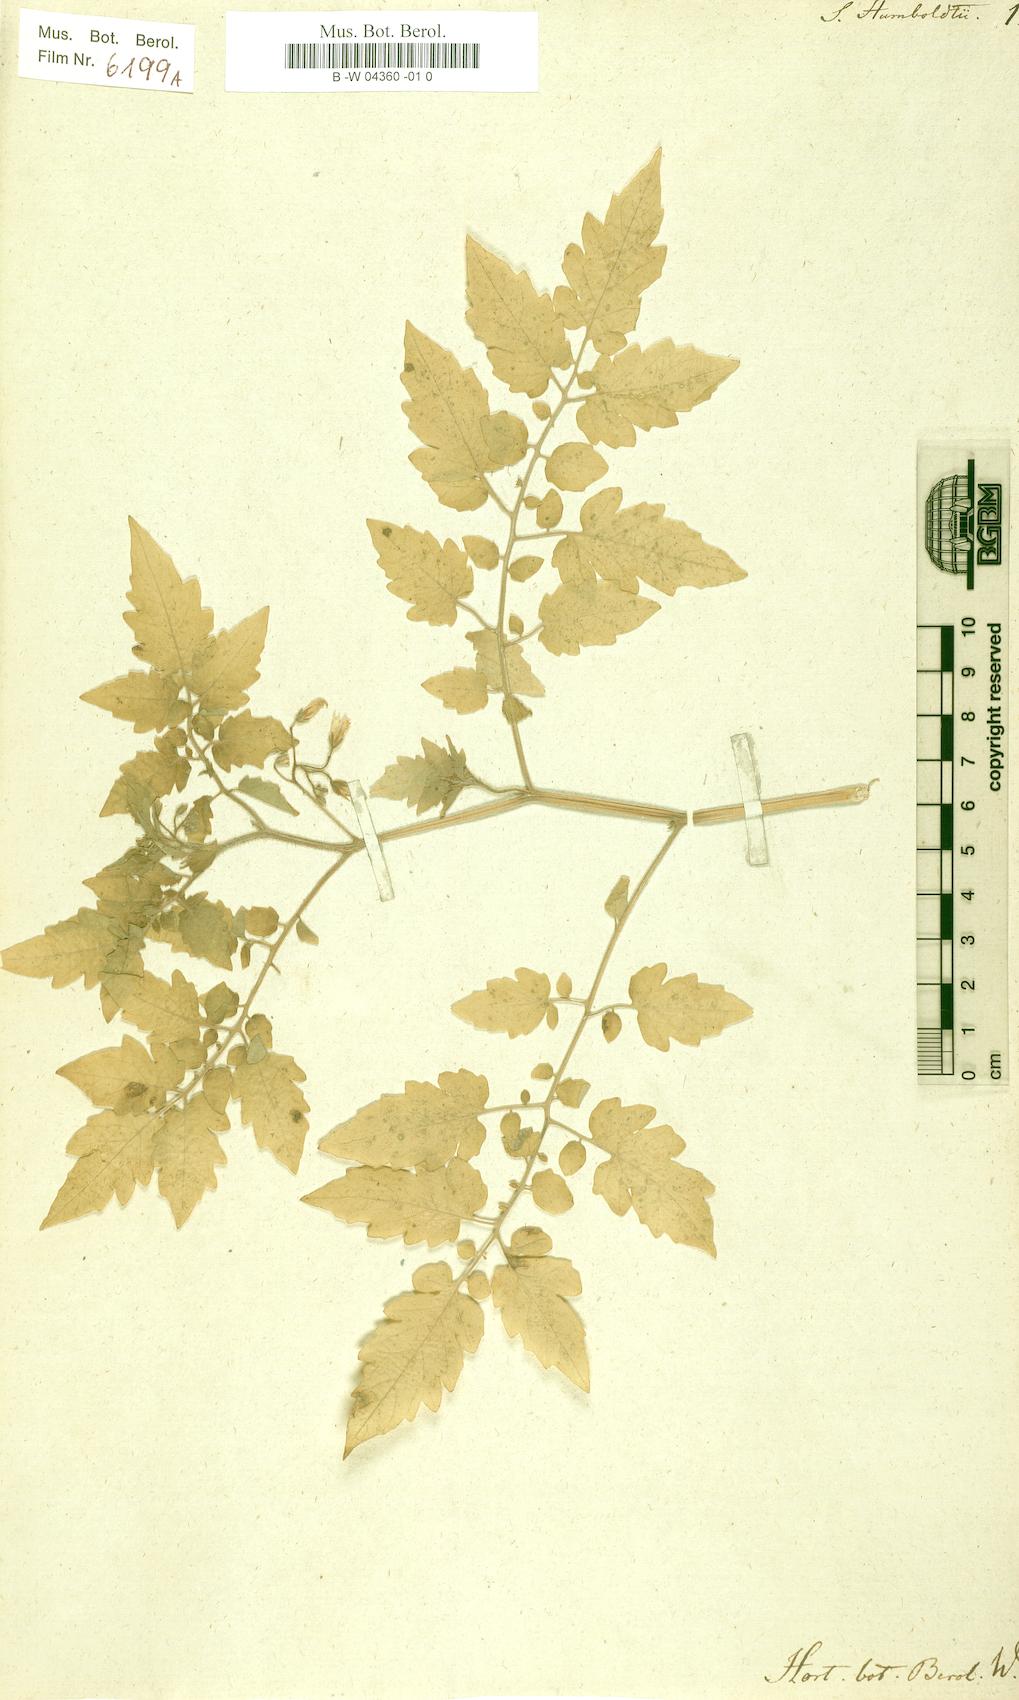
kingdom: Plantae
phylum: Tracheophyta
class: Magnoliopsida
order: Solanales
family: Solanaceae
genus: Solanum
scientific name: Solanum lycopersicum
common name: Garden tomato
